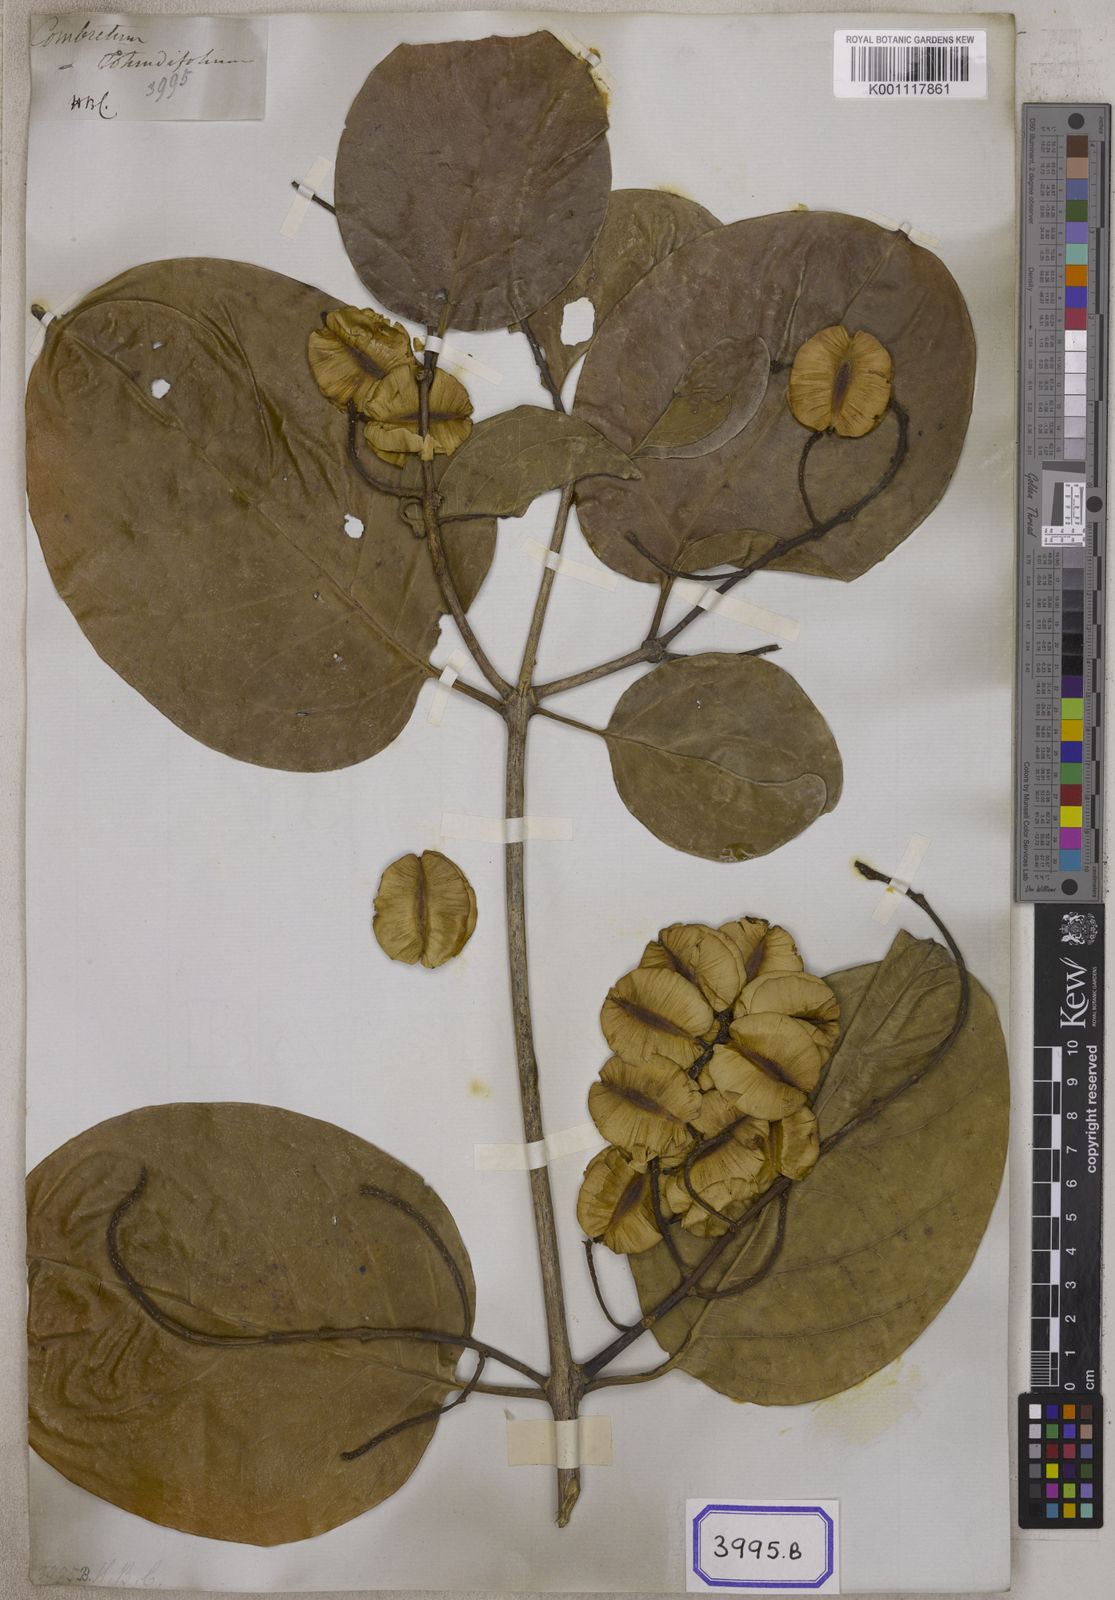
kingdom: Plantae
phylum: Tracheophyta
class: Magnoliopsida
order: Myrtales
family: Combretaceae
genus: Combretum
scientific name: Combretum latifolium
